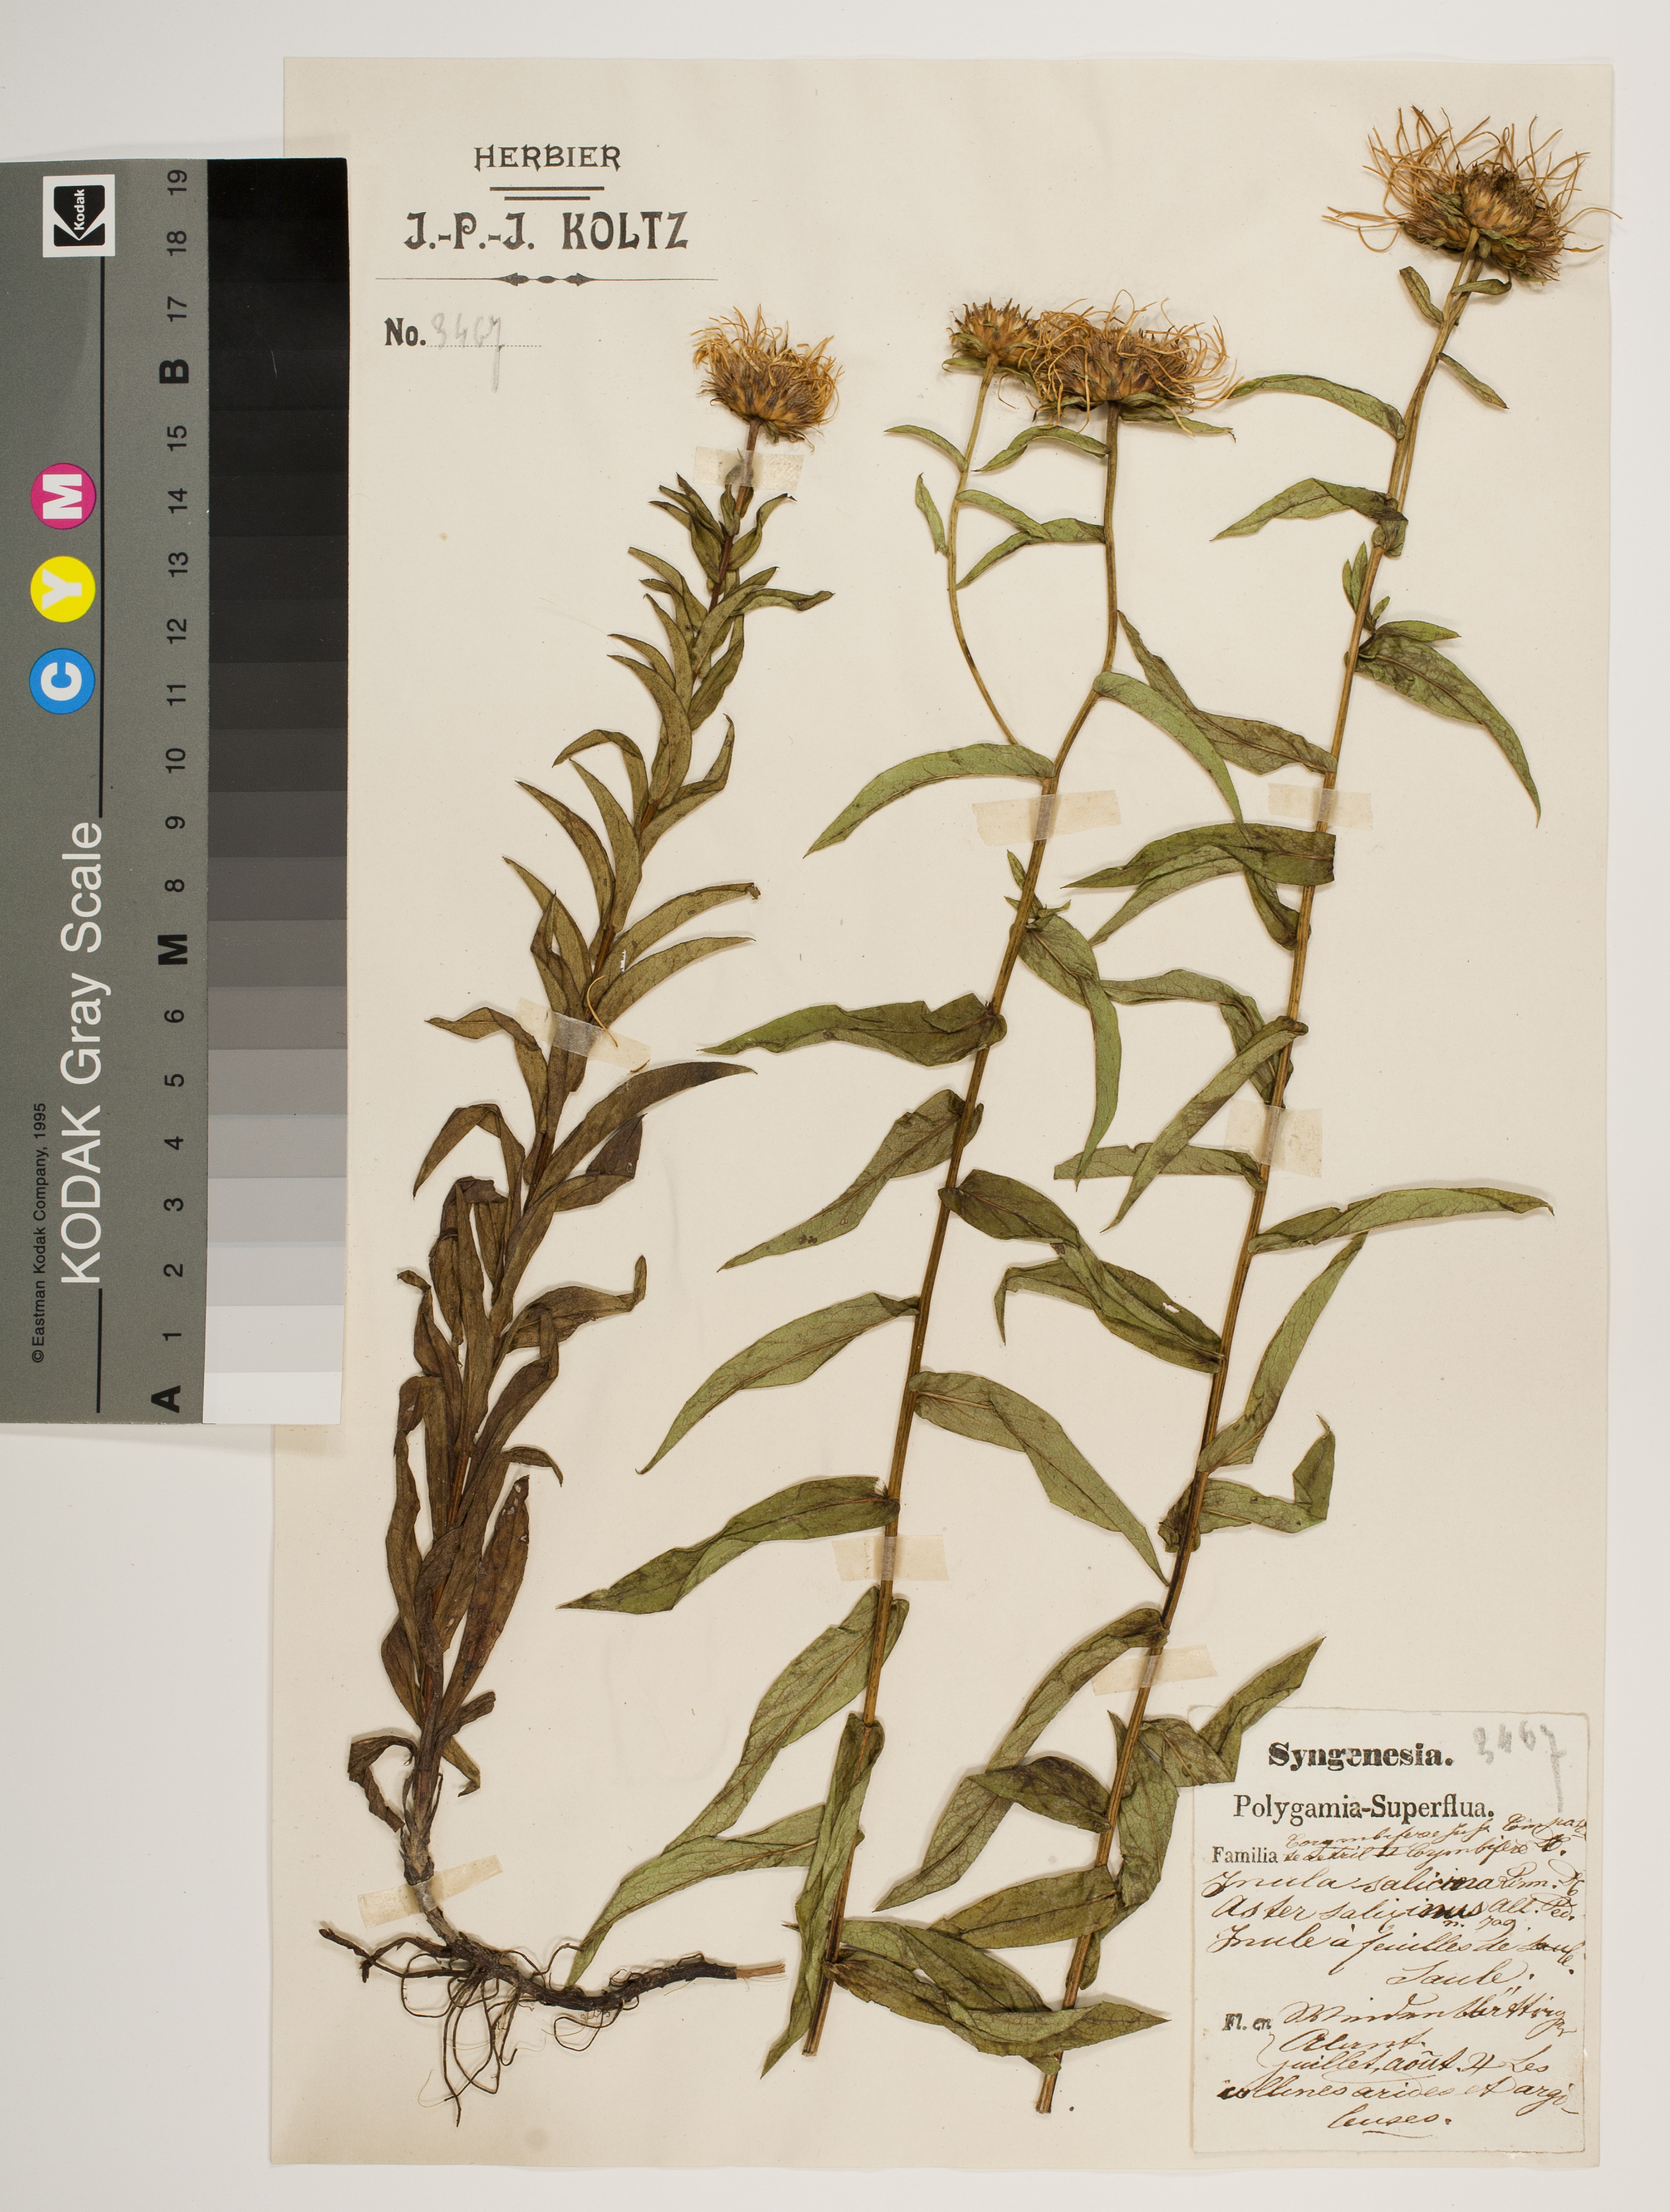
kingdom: Plantae
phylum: Tracheophyta
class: Magnoliopsida
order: Asterales
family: Asteraceae
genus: Pentanema
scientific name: Pentanema salicinum
